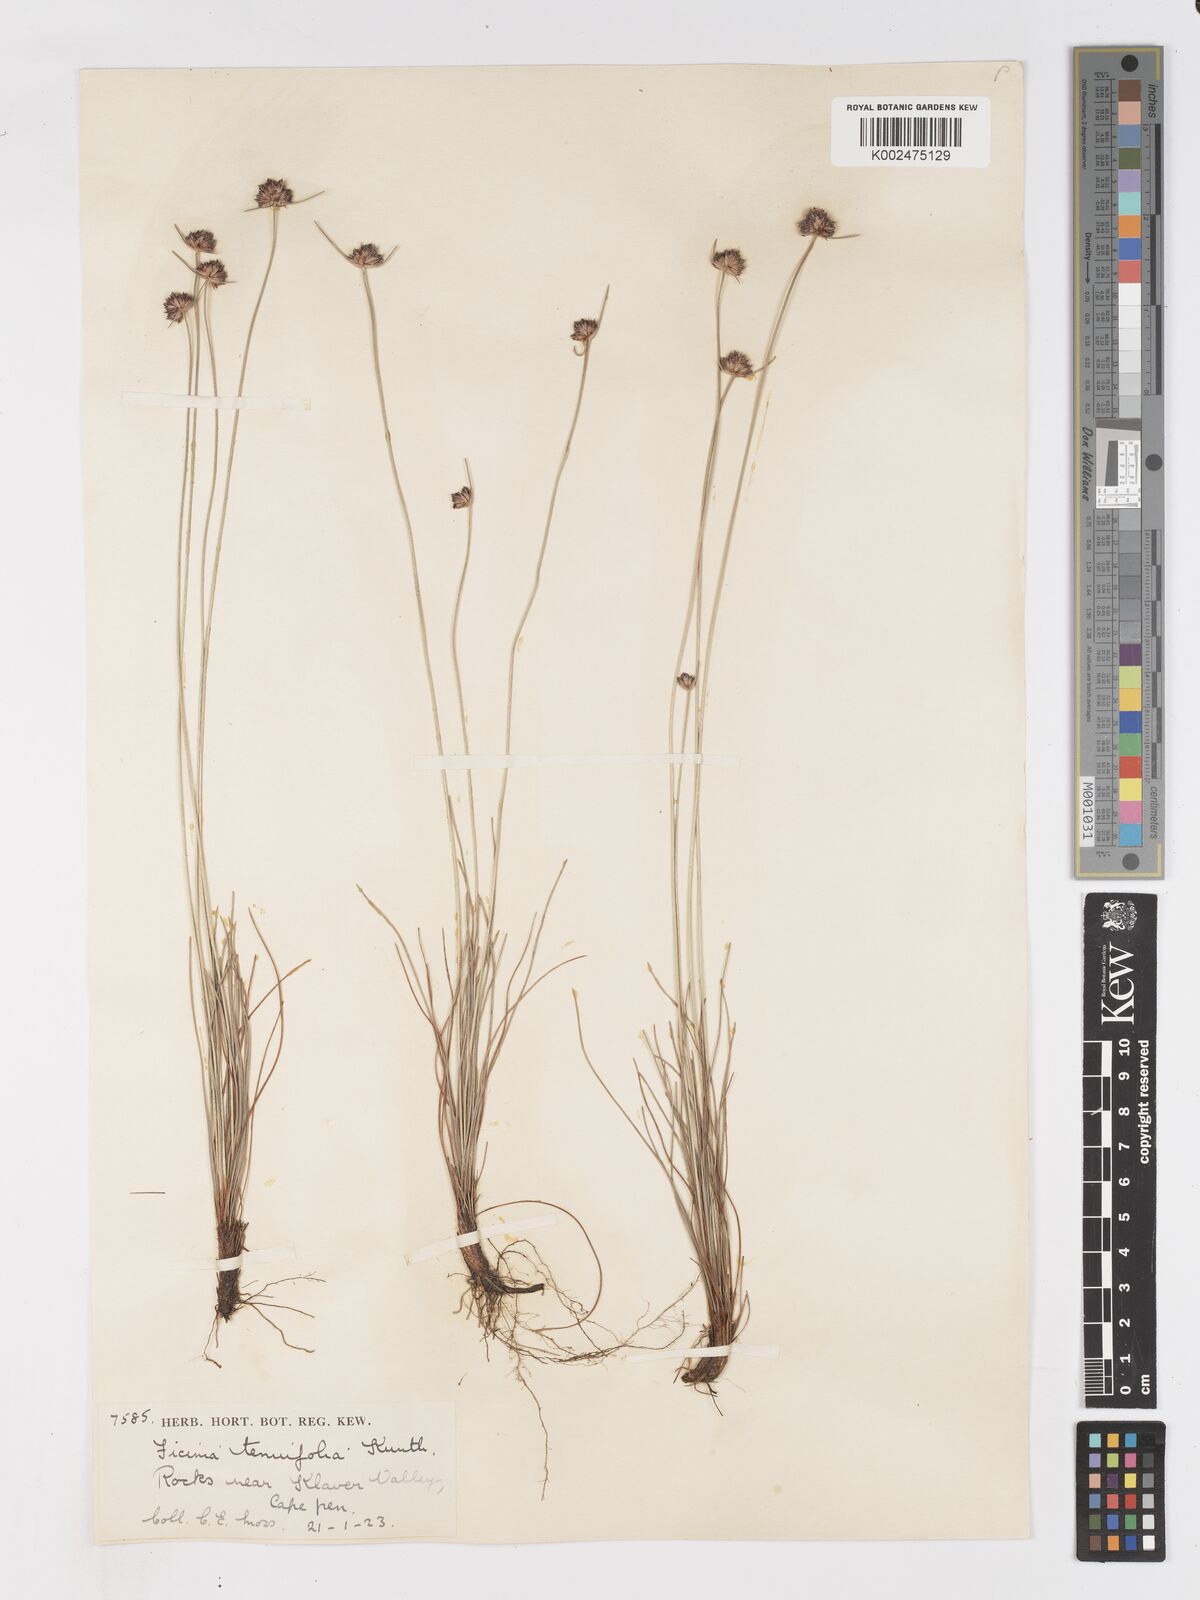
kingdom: Plantae
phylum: Tracheophyta
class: Liliopsida
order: Poales
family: Cyperaceae
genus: Ficinia
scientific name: Ficinia filiformis
